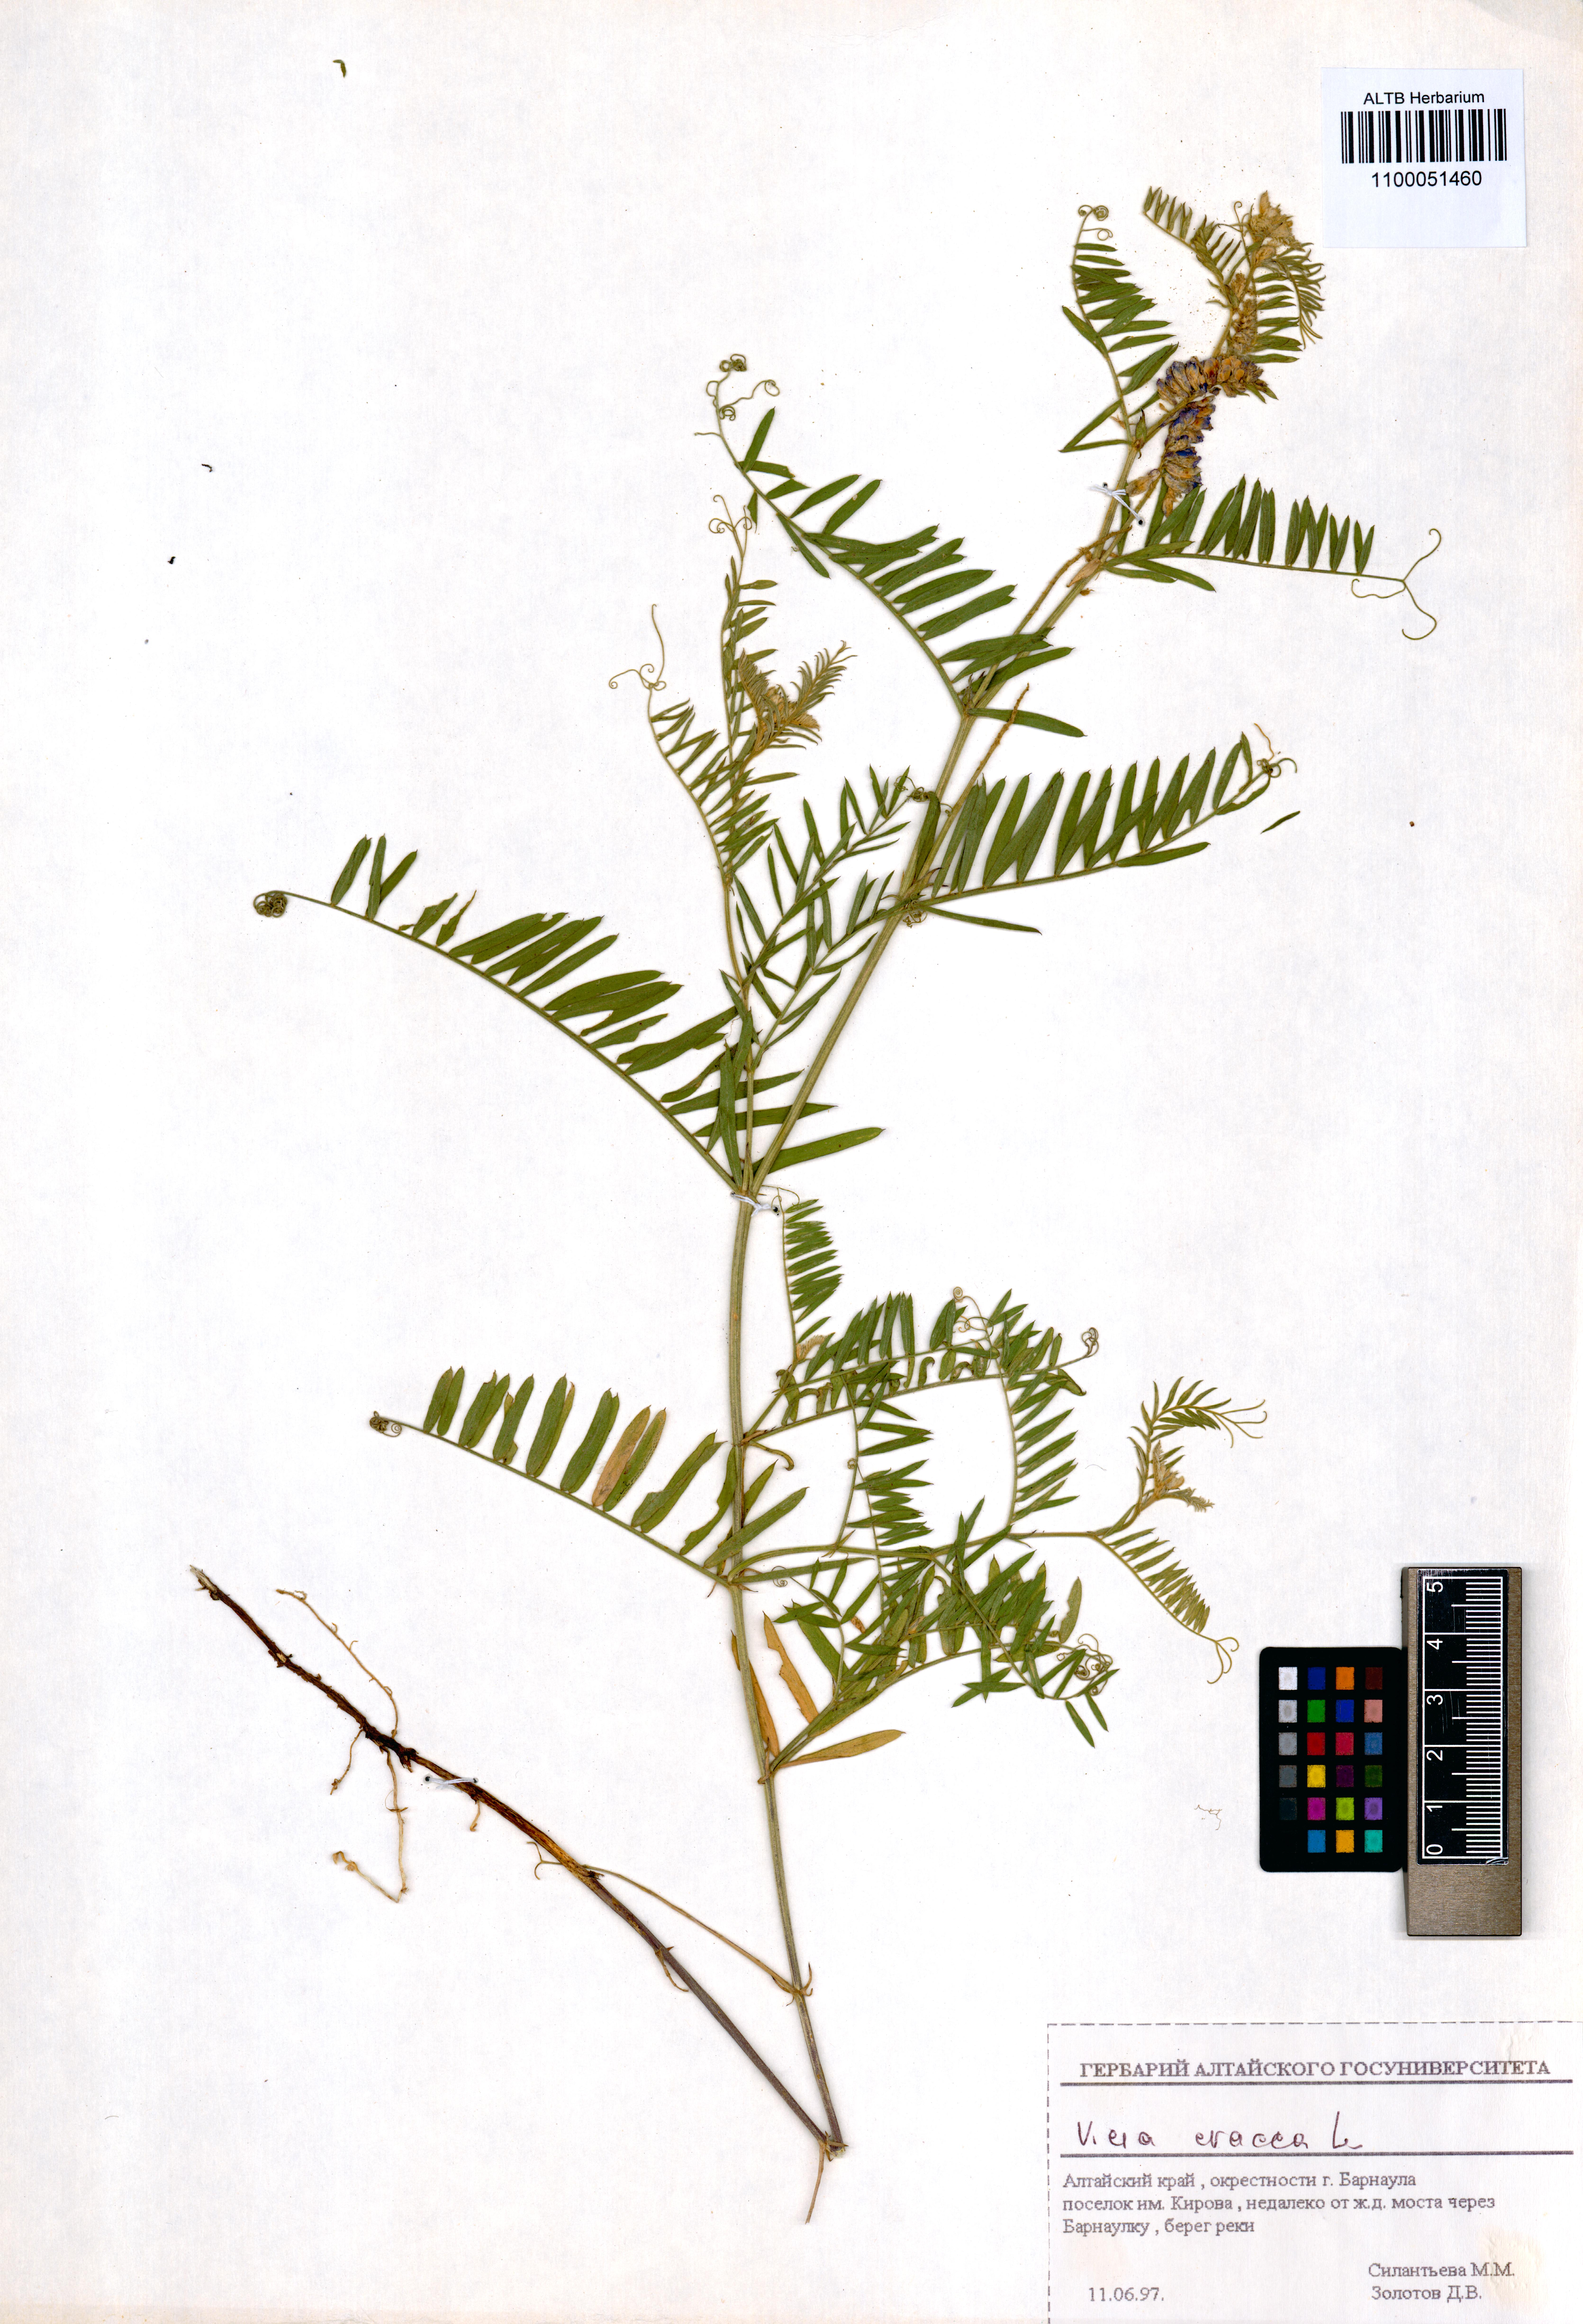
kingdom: Plantae
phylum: Tracheophyta
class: Magnoliopsida
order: Fabales
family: Fabaceae
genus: Vicia
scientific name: Vicia cracca
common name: Bird vetch
